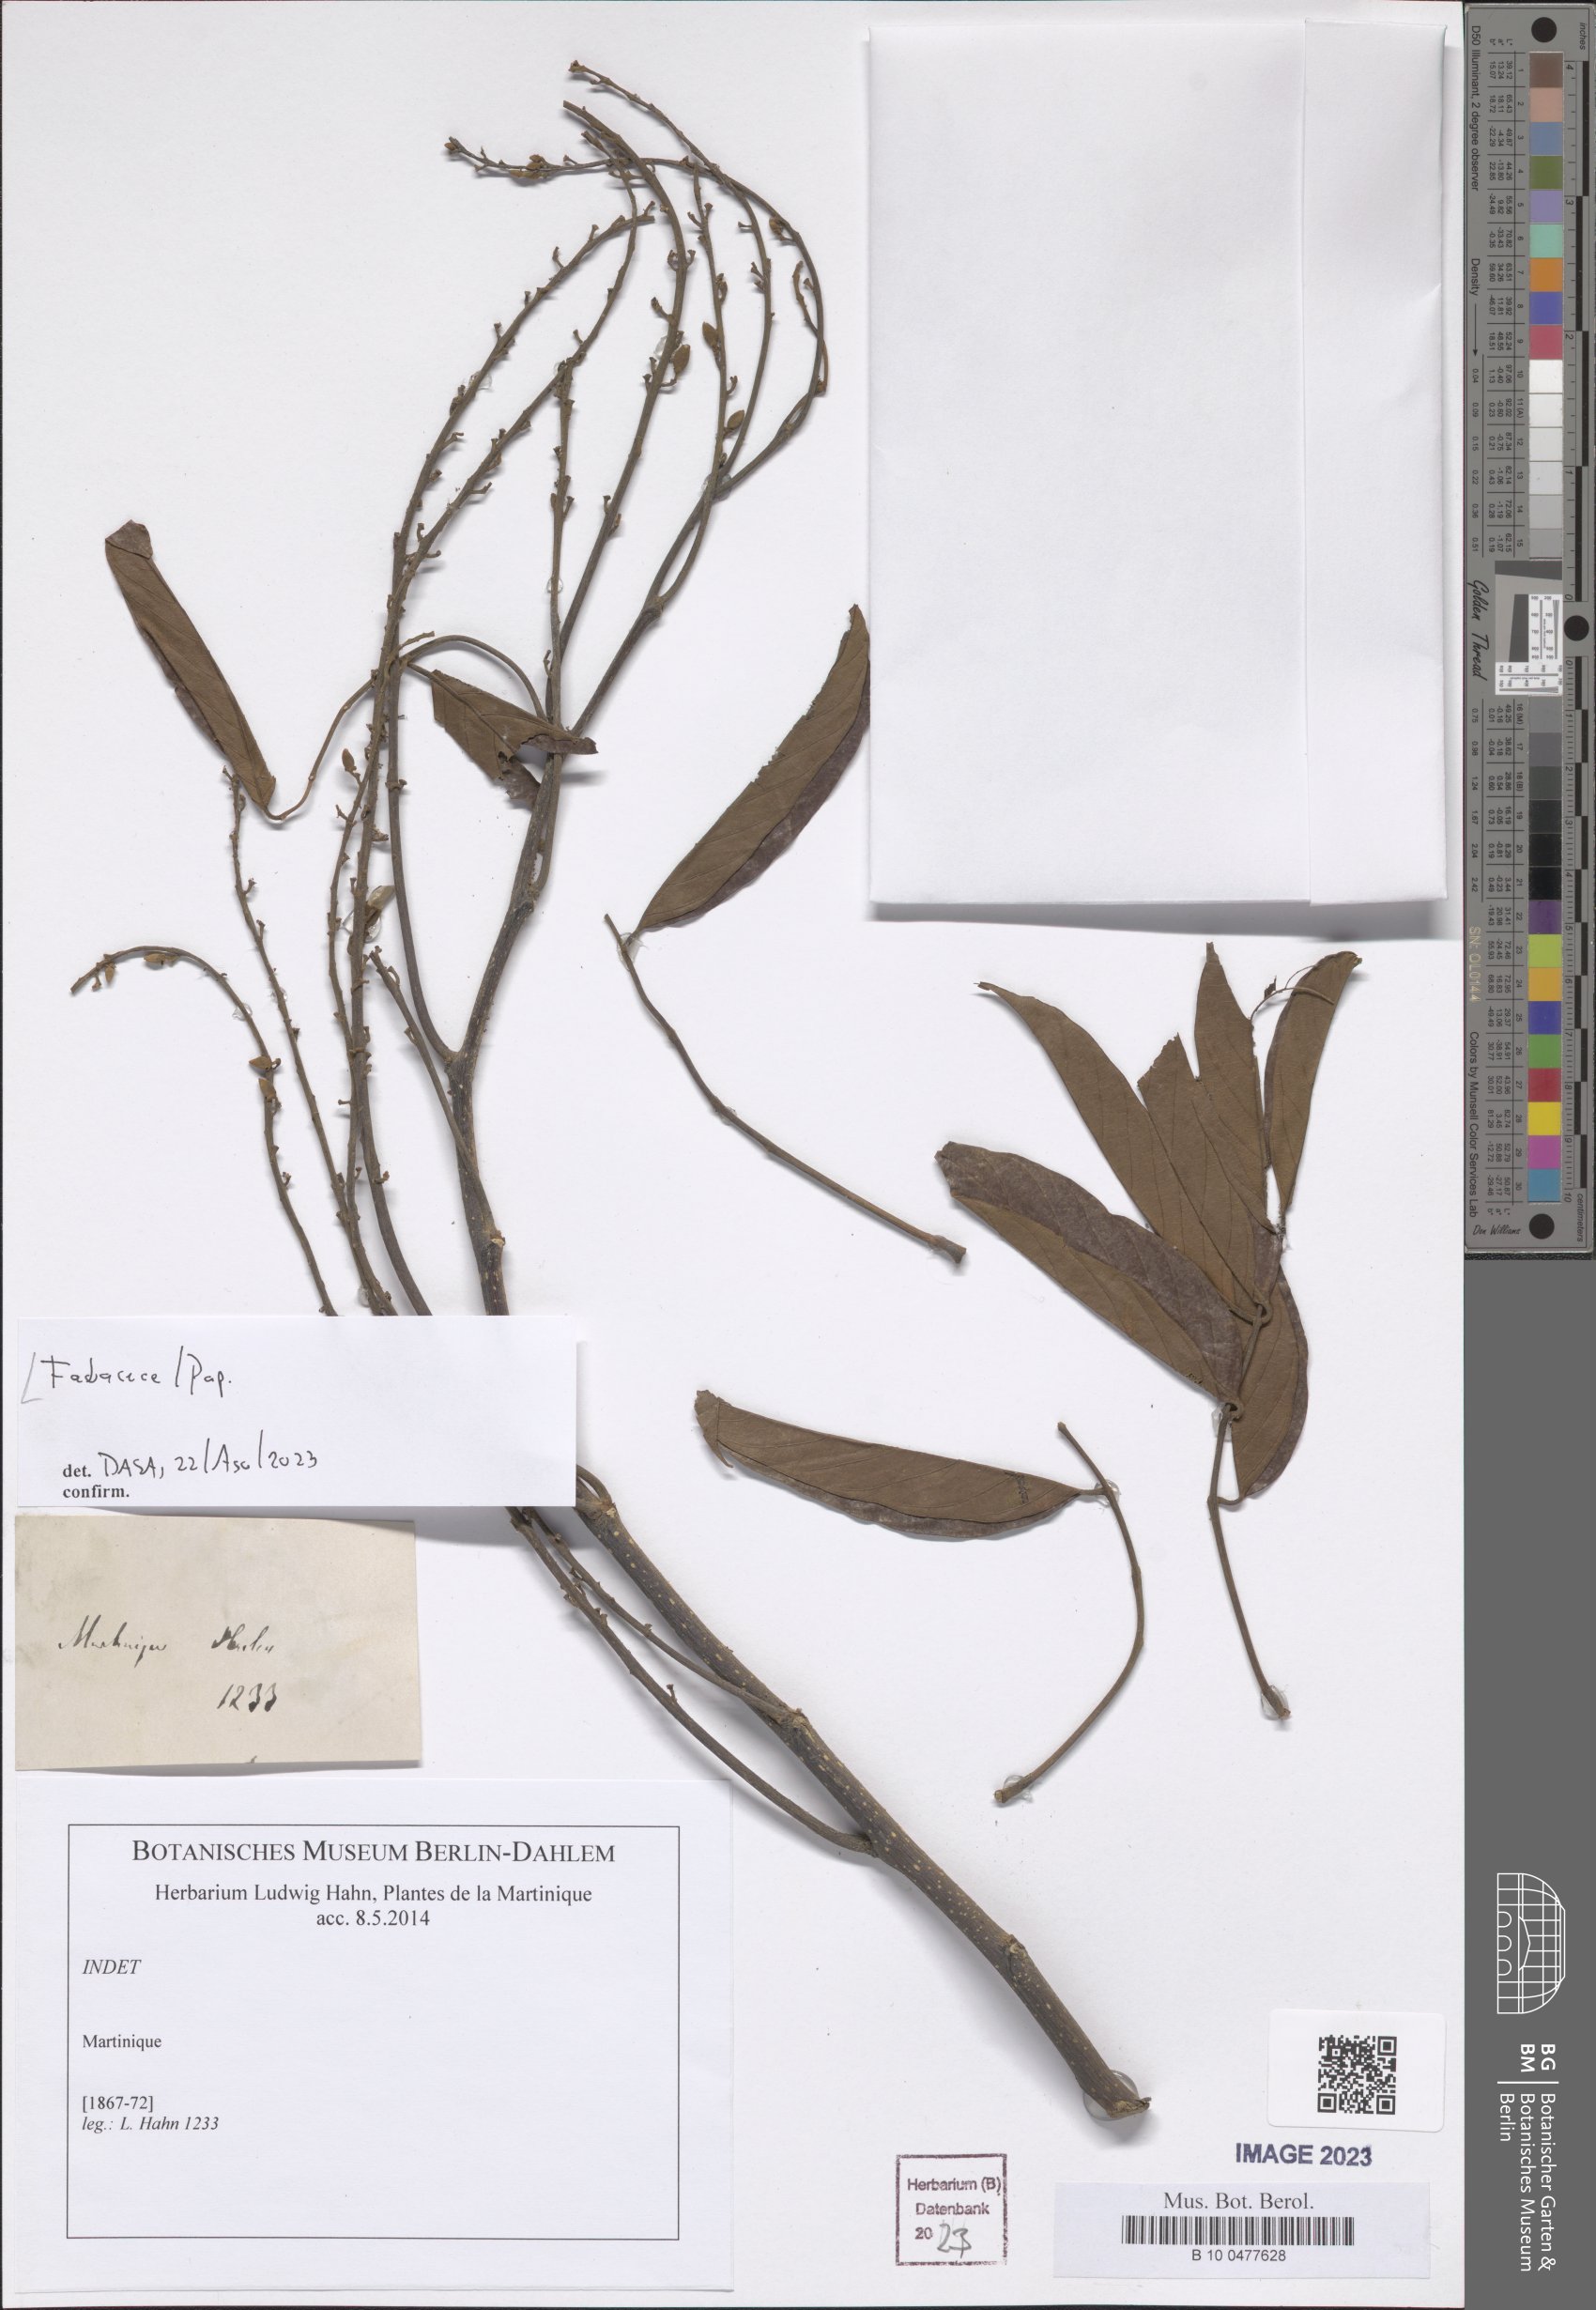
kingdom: Plantae
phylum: Tracheophyta
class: Magnoliopsida
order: Fabales
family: Fabaceae
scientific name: Fabaceae
